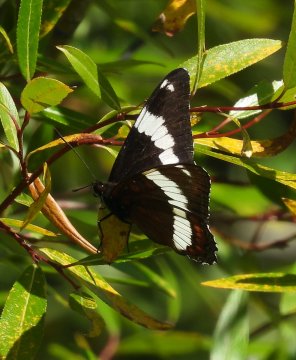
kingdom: Animalia
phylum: Arthropoda
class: Insecta
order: Lepidoptera
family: Nymphalidae
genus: Limenitis
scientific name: Limenitis arthemis
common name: Red-spotted Admiral
